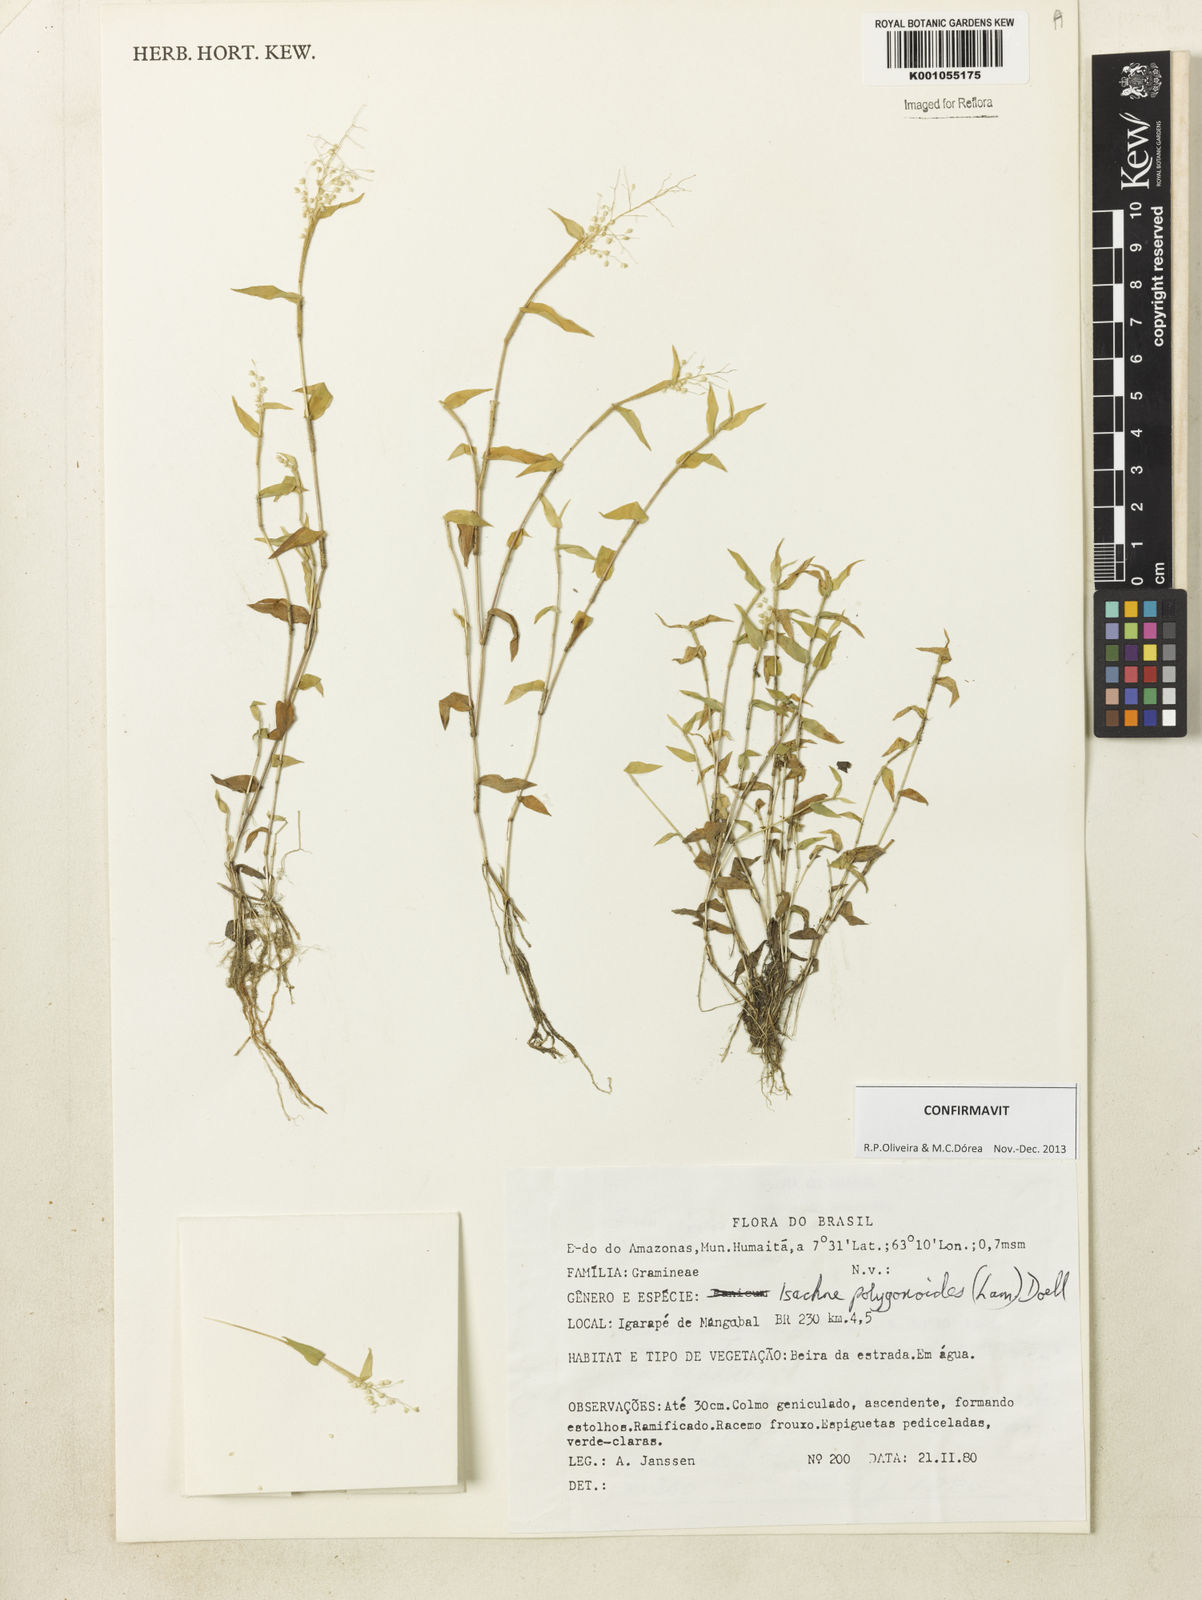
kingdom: Plantae
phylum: Tracheophyta
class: Liliopsida
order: Poales
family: Poaceae
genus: Isachne
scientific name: Isachne
